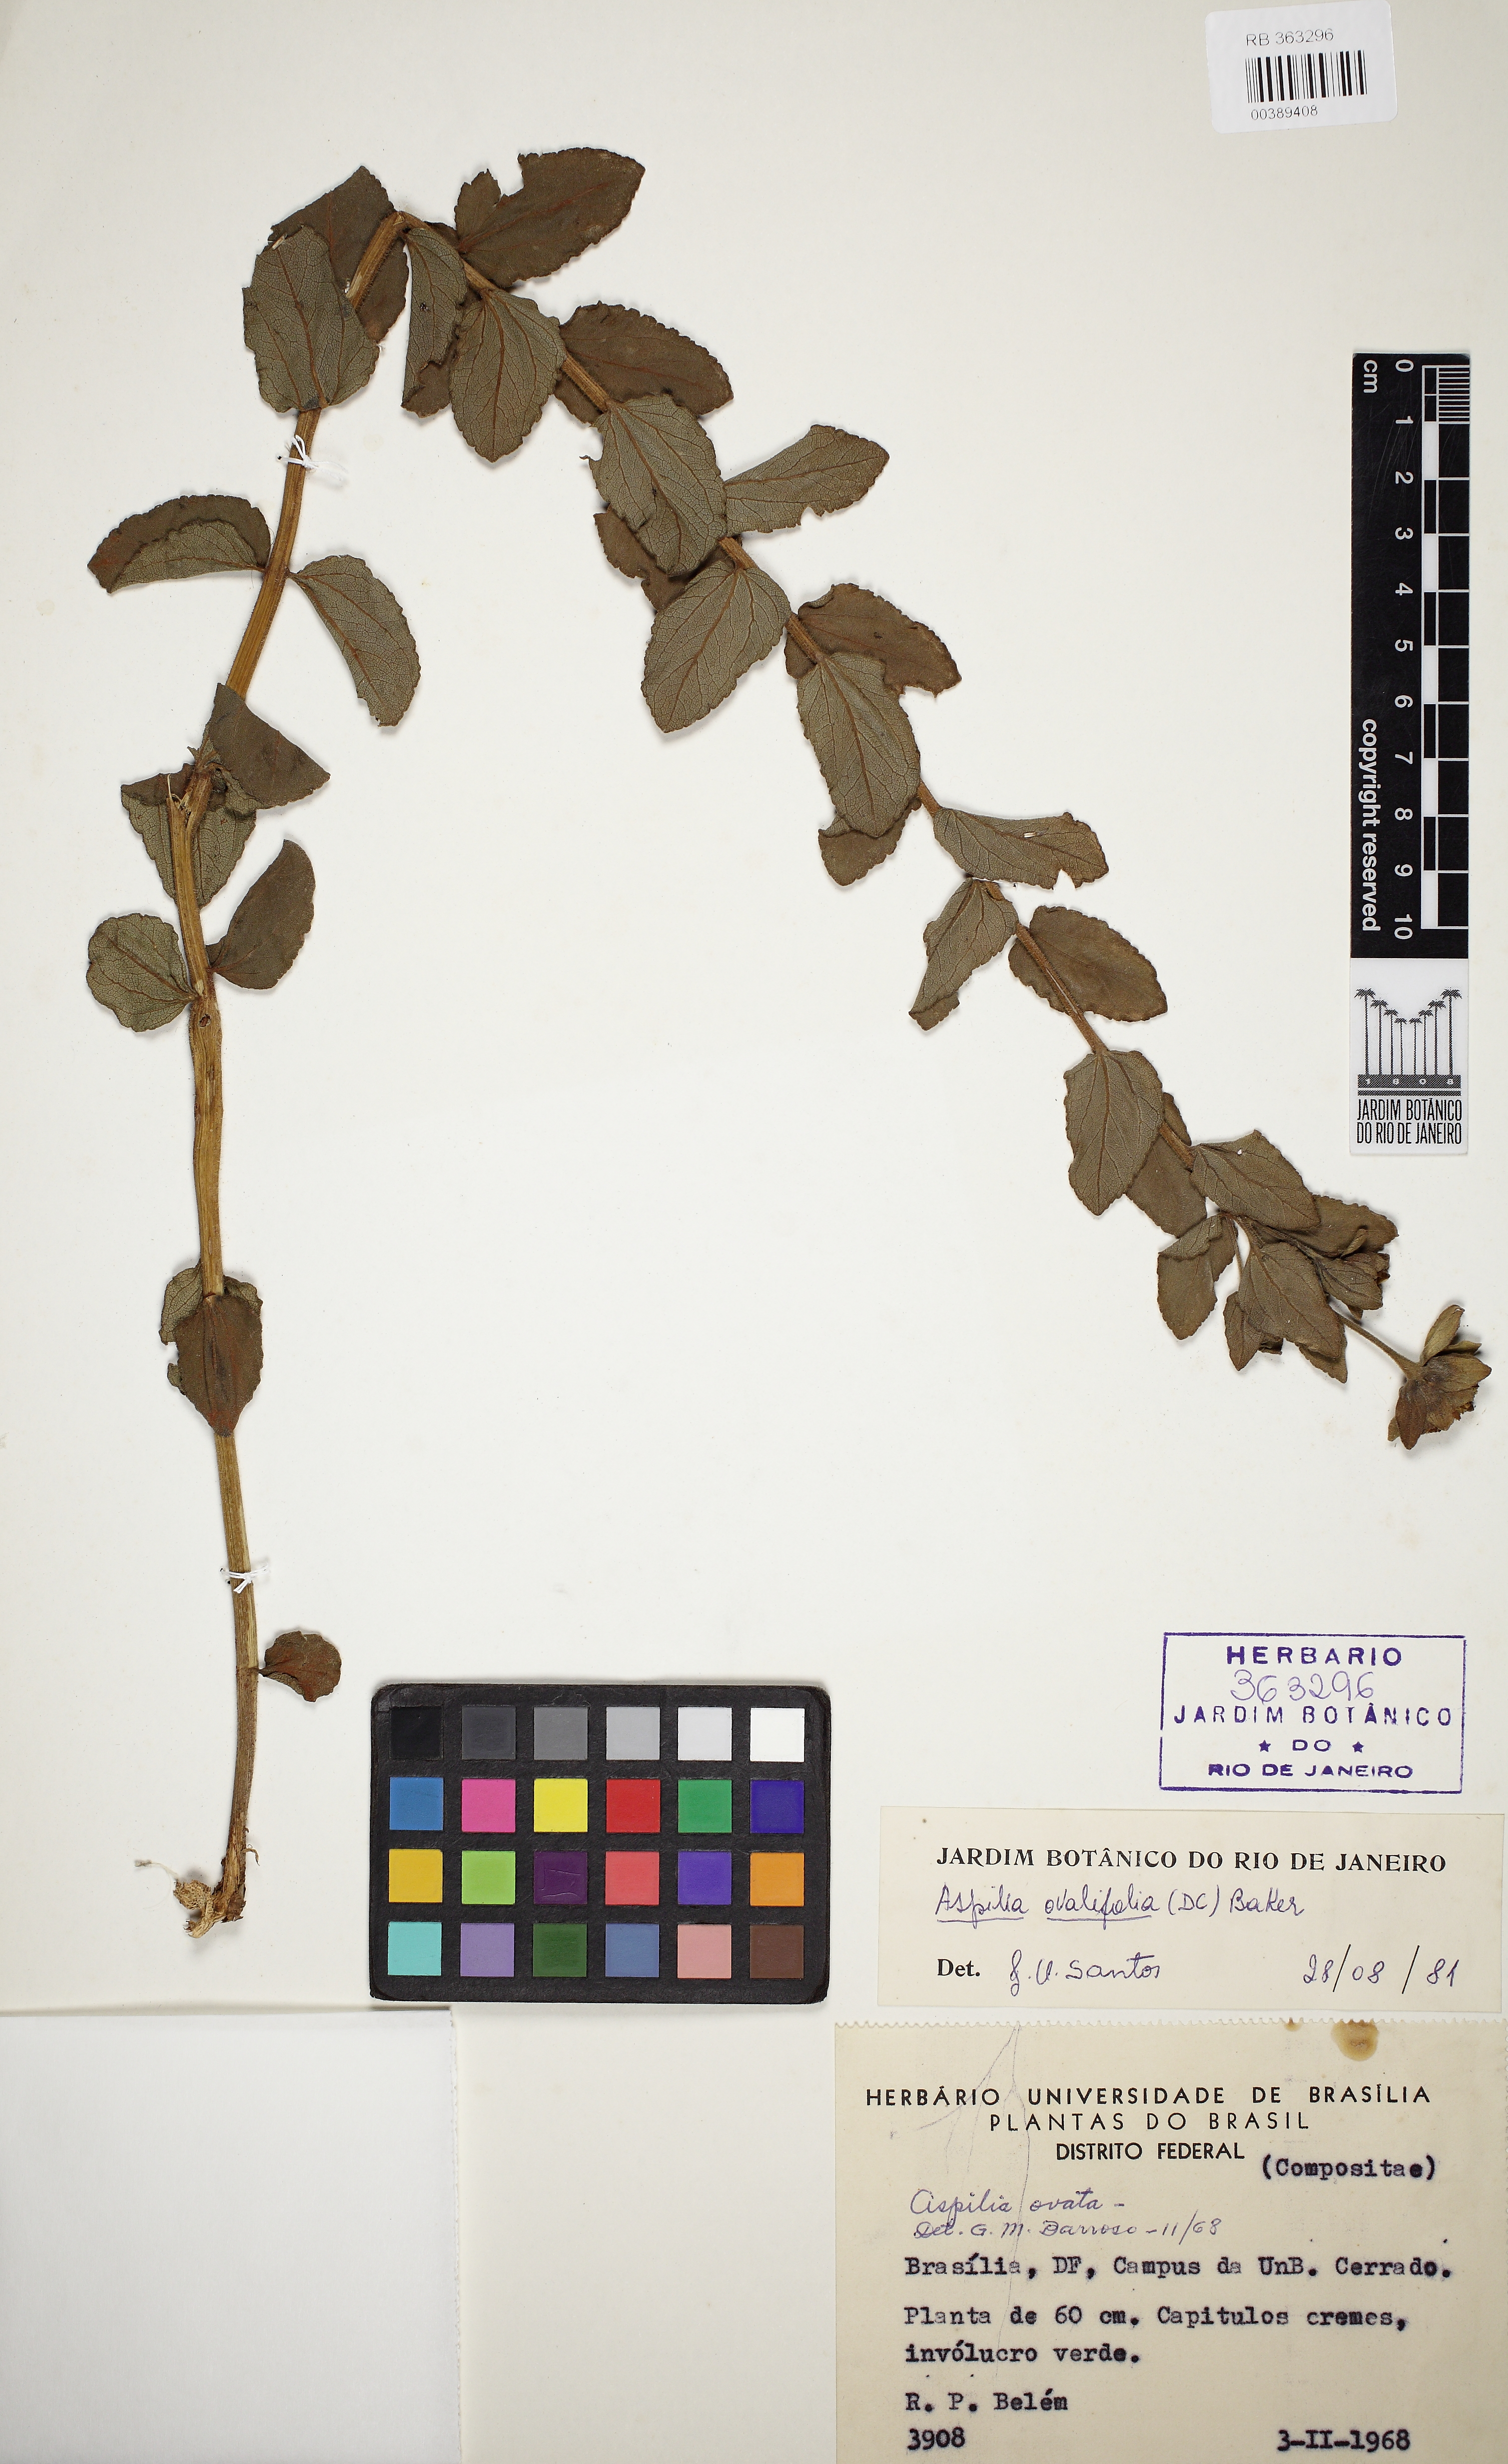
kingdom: Plantae
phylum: Tracheophyta
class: Magnoliopsida
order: Asterales
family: Asteraceae
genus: Wedelia
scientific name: Wedelia ovalifolia
